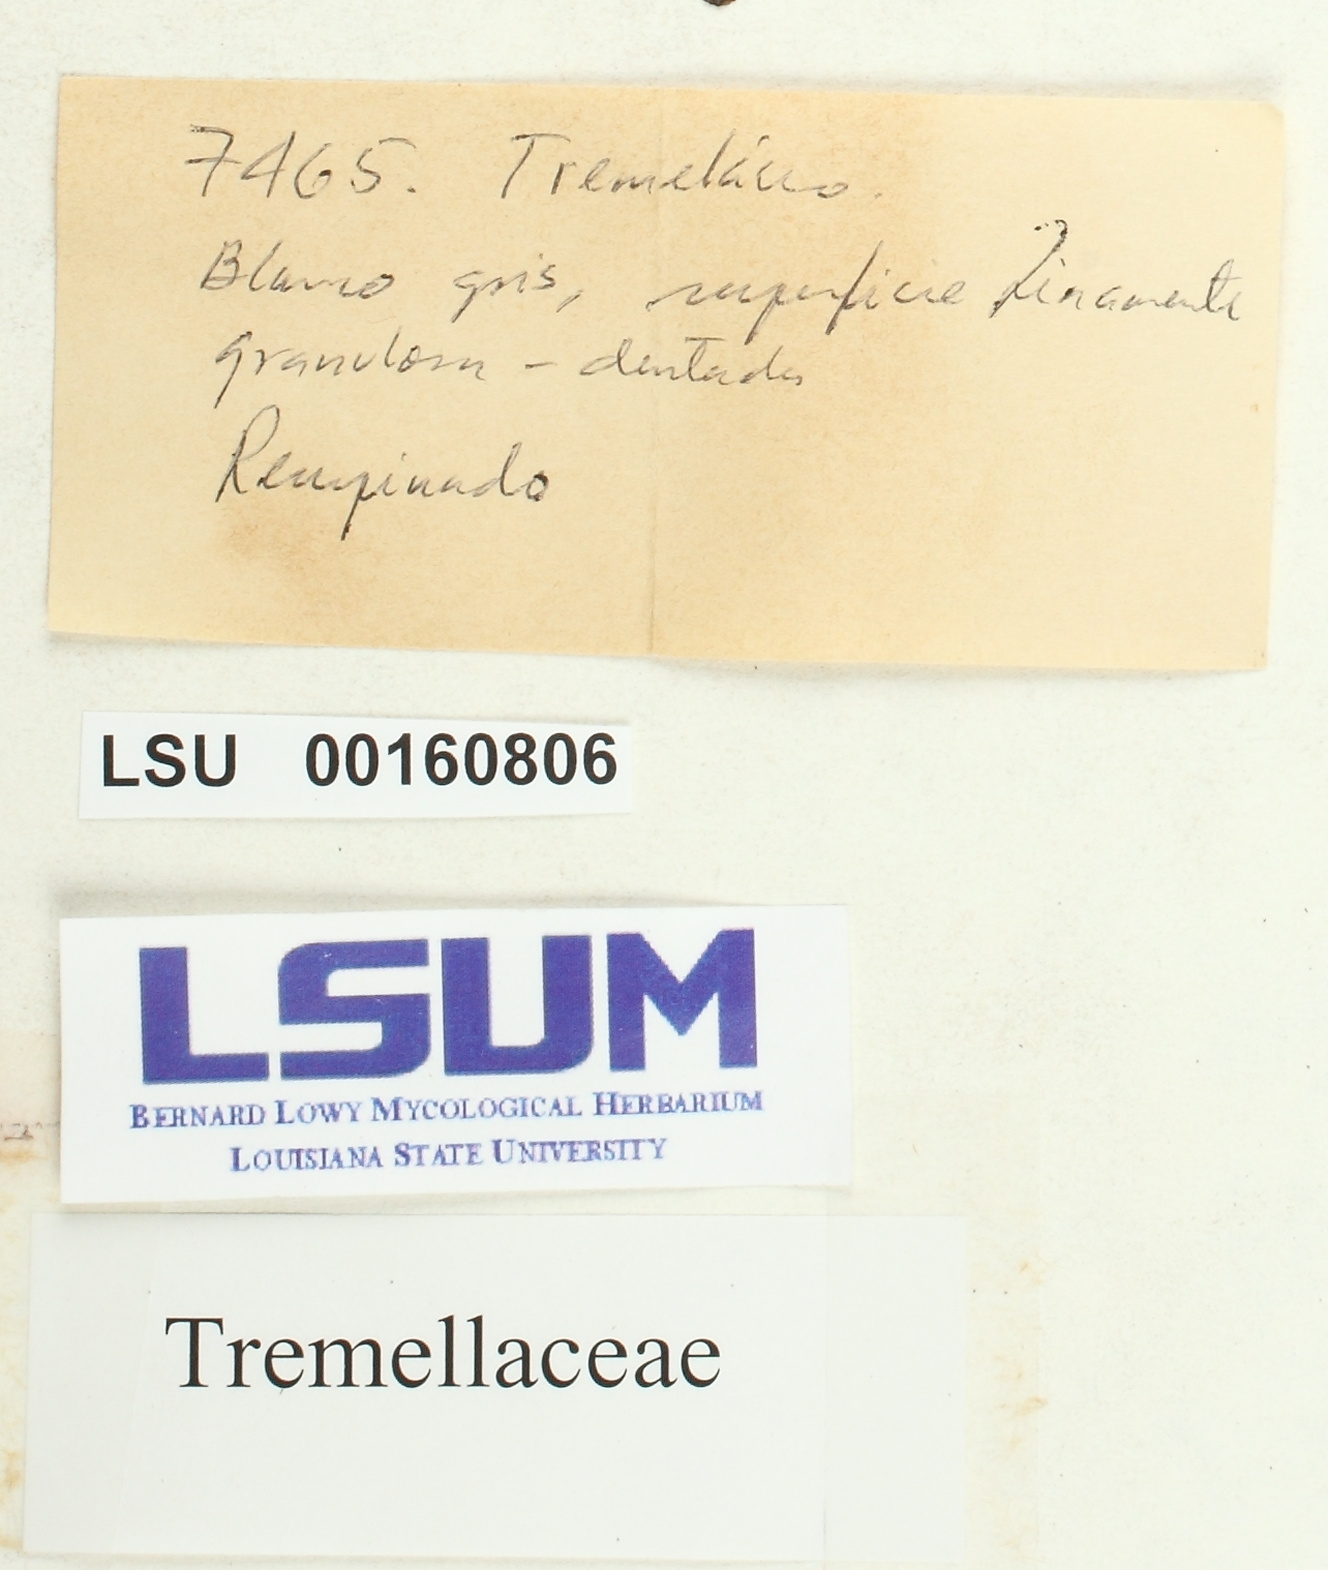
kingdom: Fungi
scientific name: Fungi
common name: Fungi
